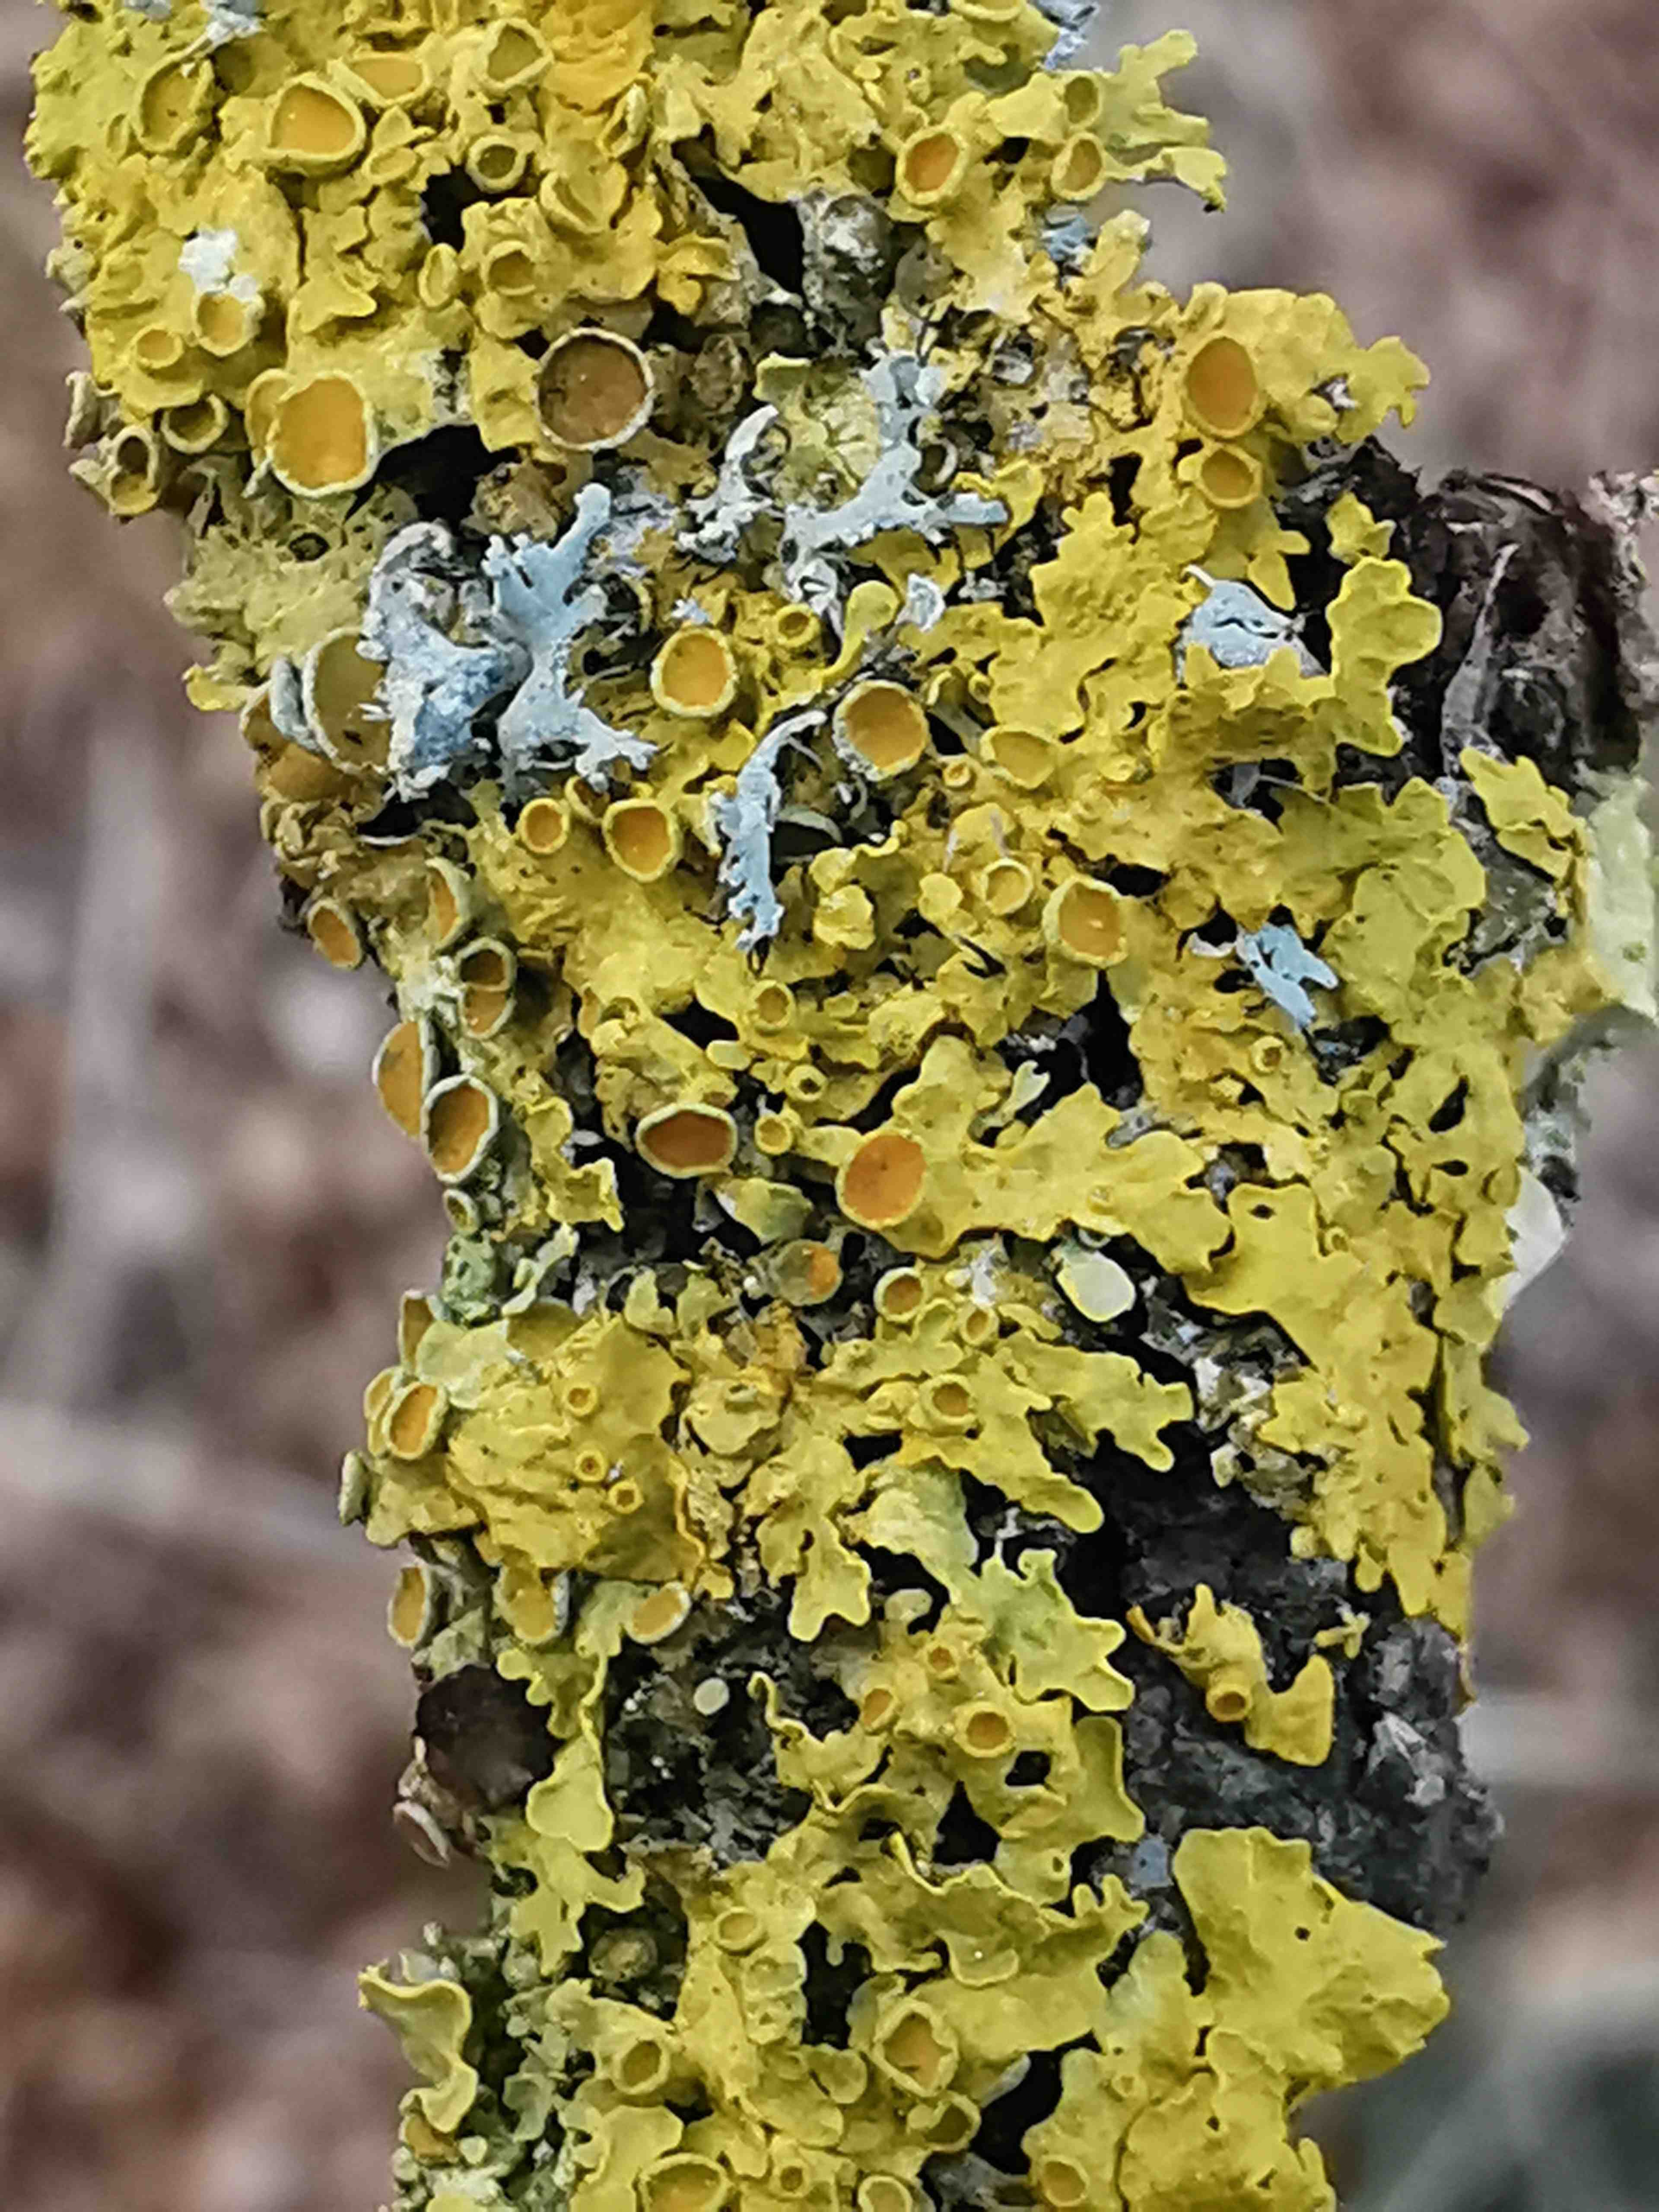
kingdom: Fungi
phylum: Ascomycota
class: Lecanoromycetes
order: Teloschistales
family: Teloschistaceae
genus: Xanthoria
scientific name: Xanthoria parietina
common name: almindelig væggelav
